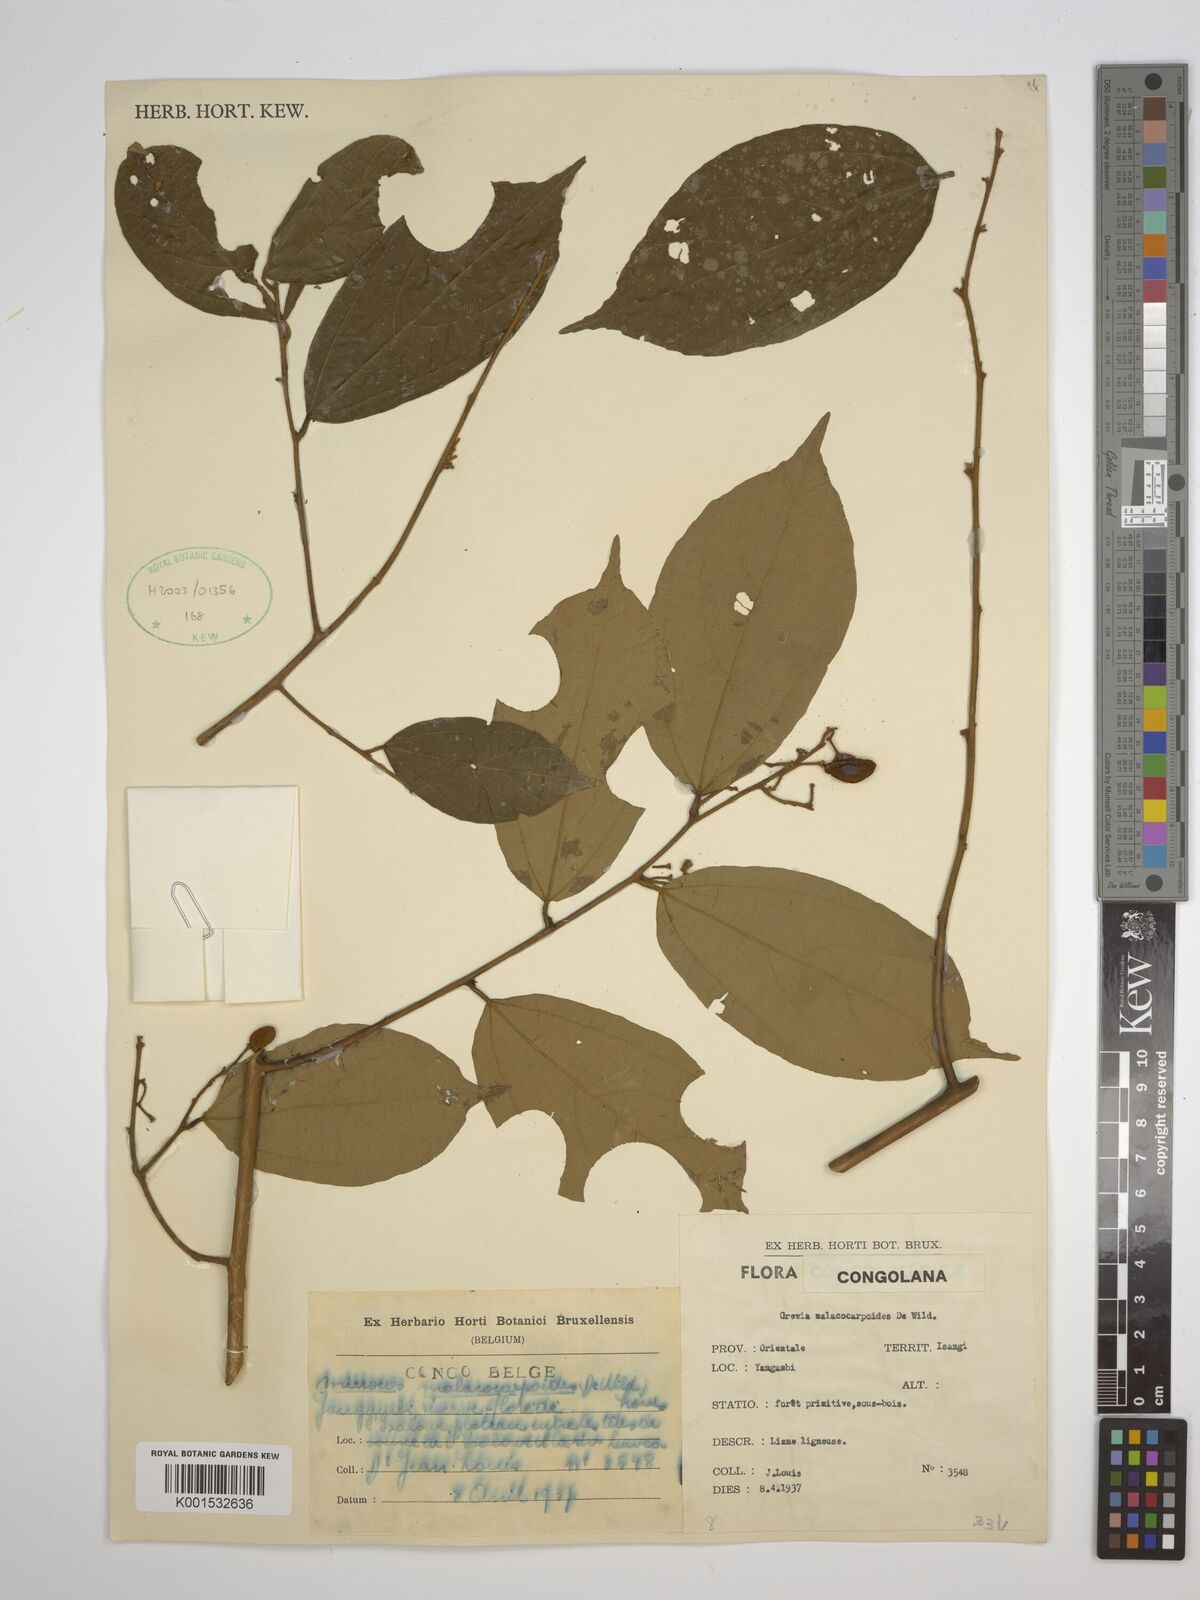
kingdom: Plantae
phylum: Tracheophyta
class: Magnoliopsida
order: Malvales
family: Malvaceae
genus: Microcos
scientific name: Microcos malacocarpa
